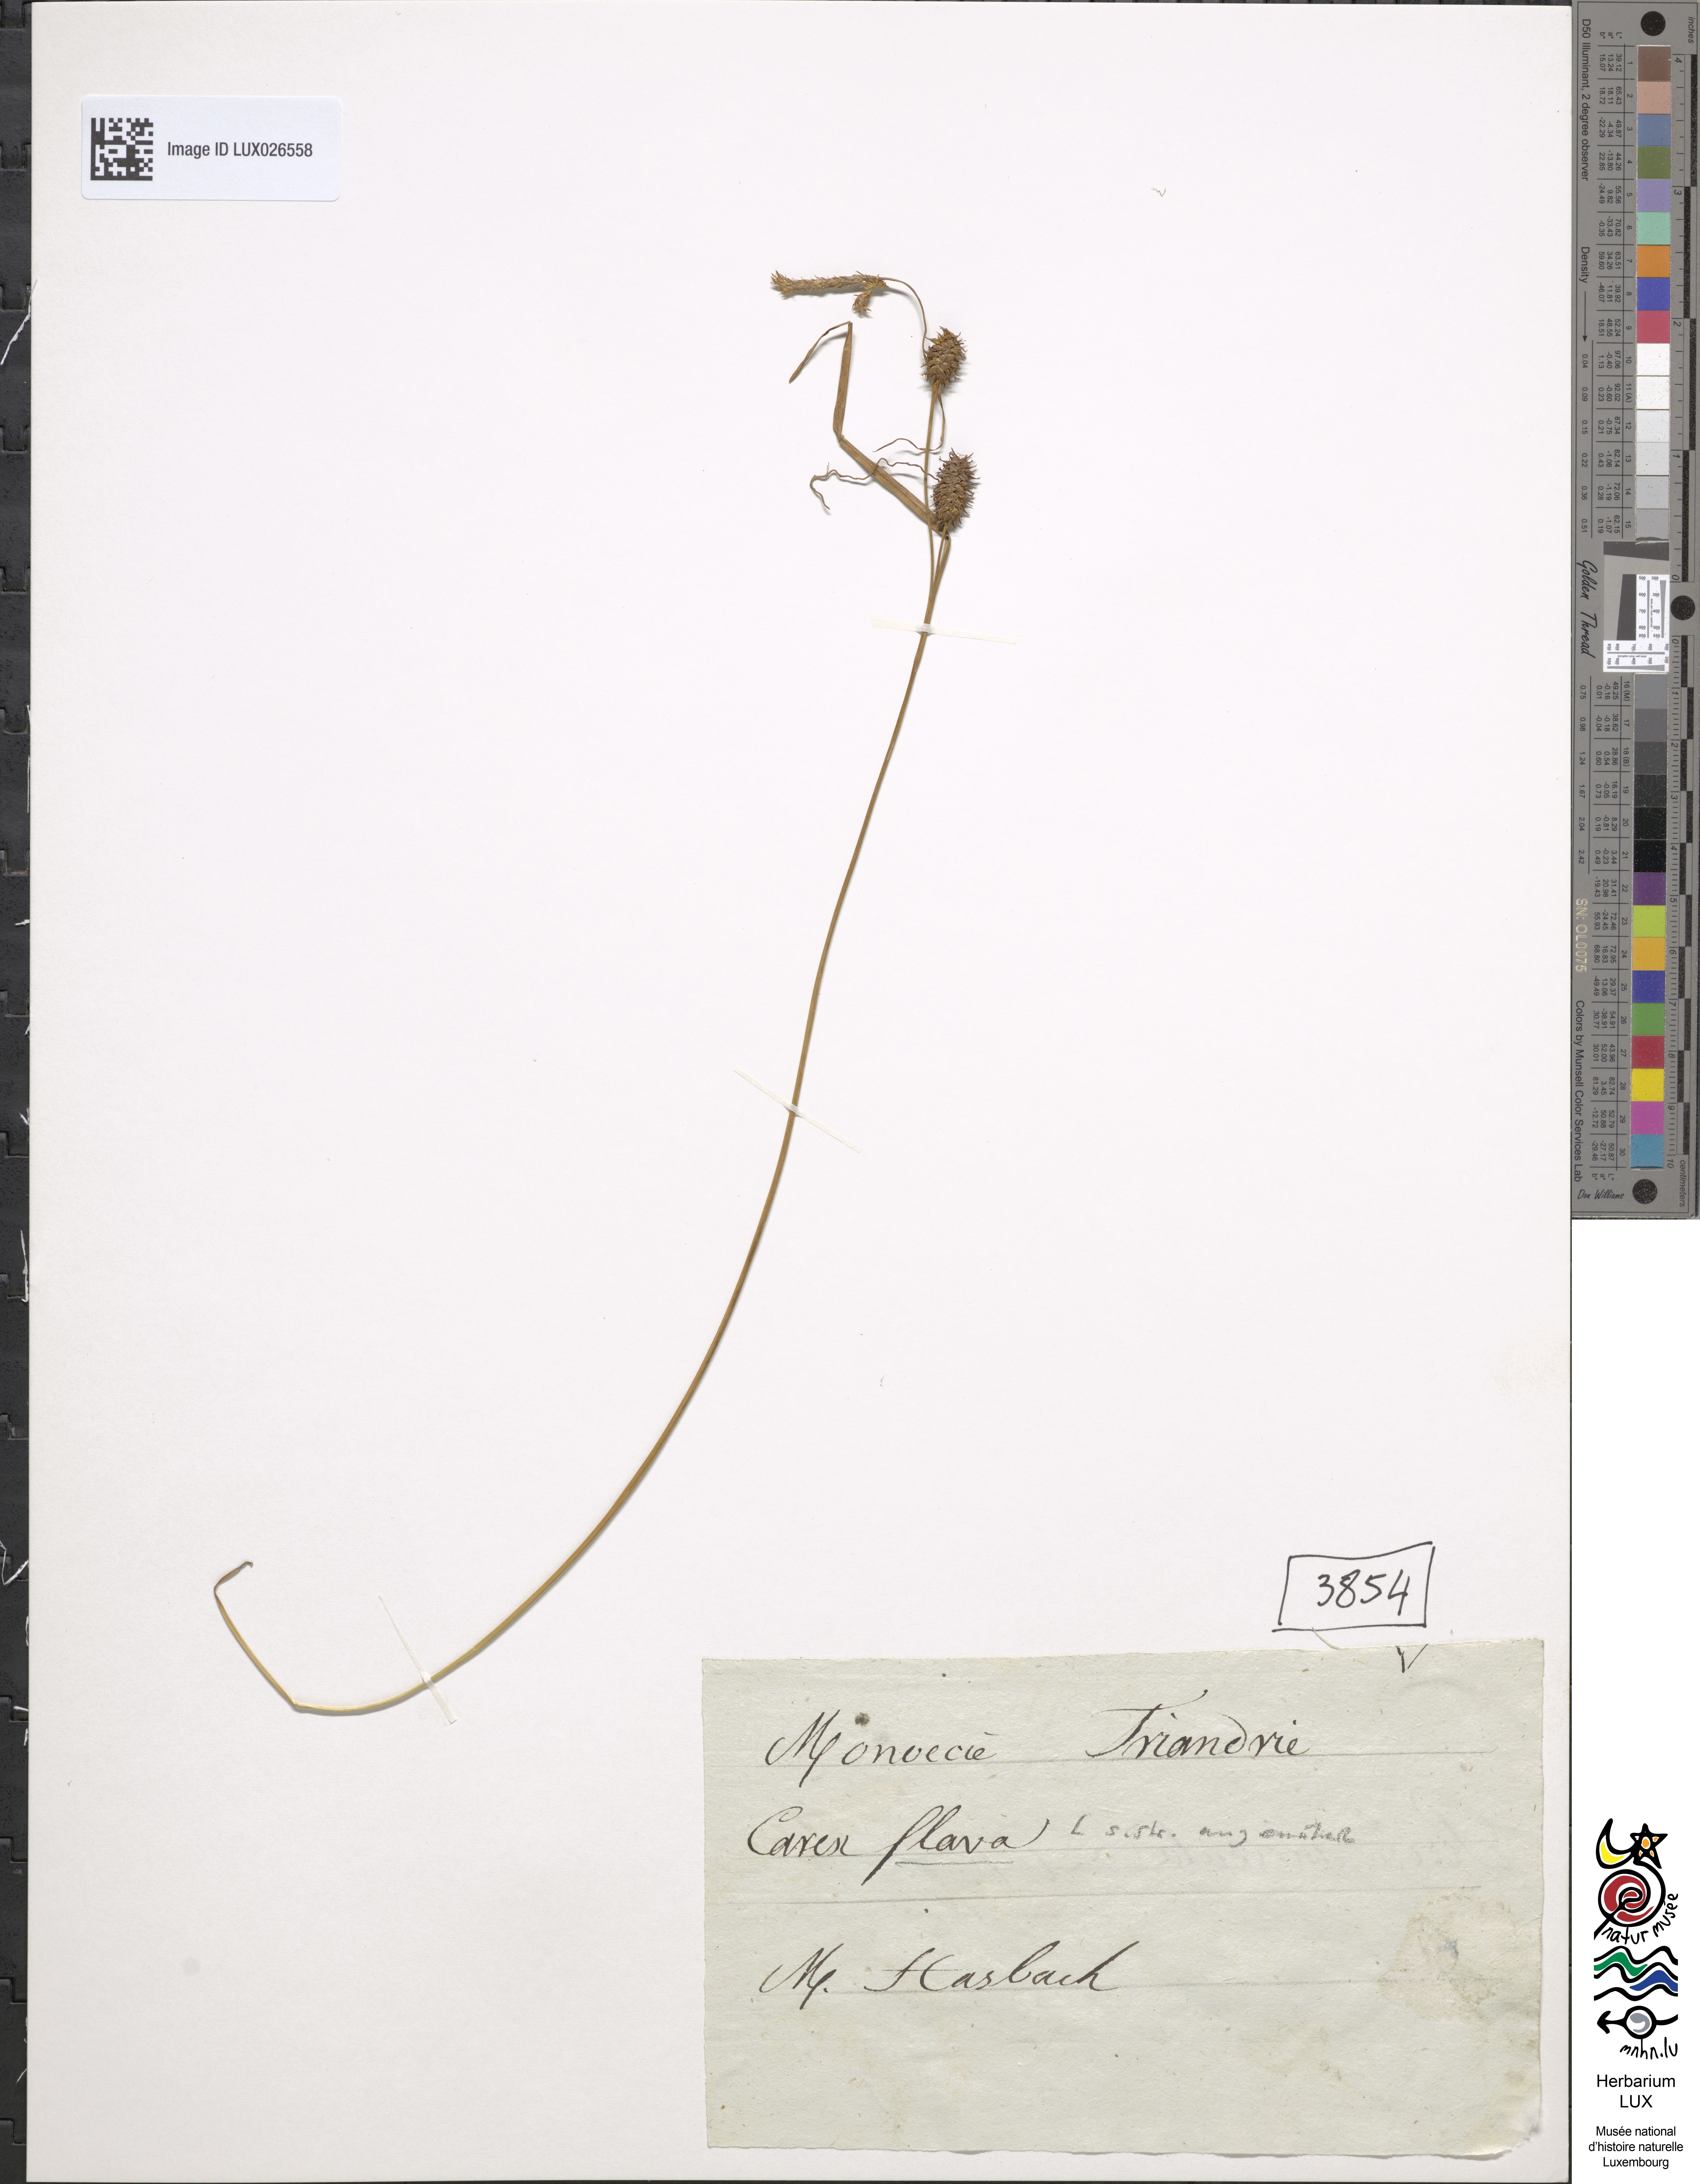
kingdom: Plantae
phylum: Tracheophyta
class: Liliopsida
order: Poales
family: Cyperaceae
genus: Carex
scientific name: Carex flava
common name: Large yellow-sedge
